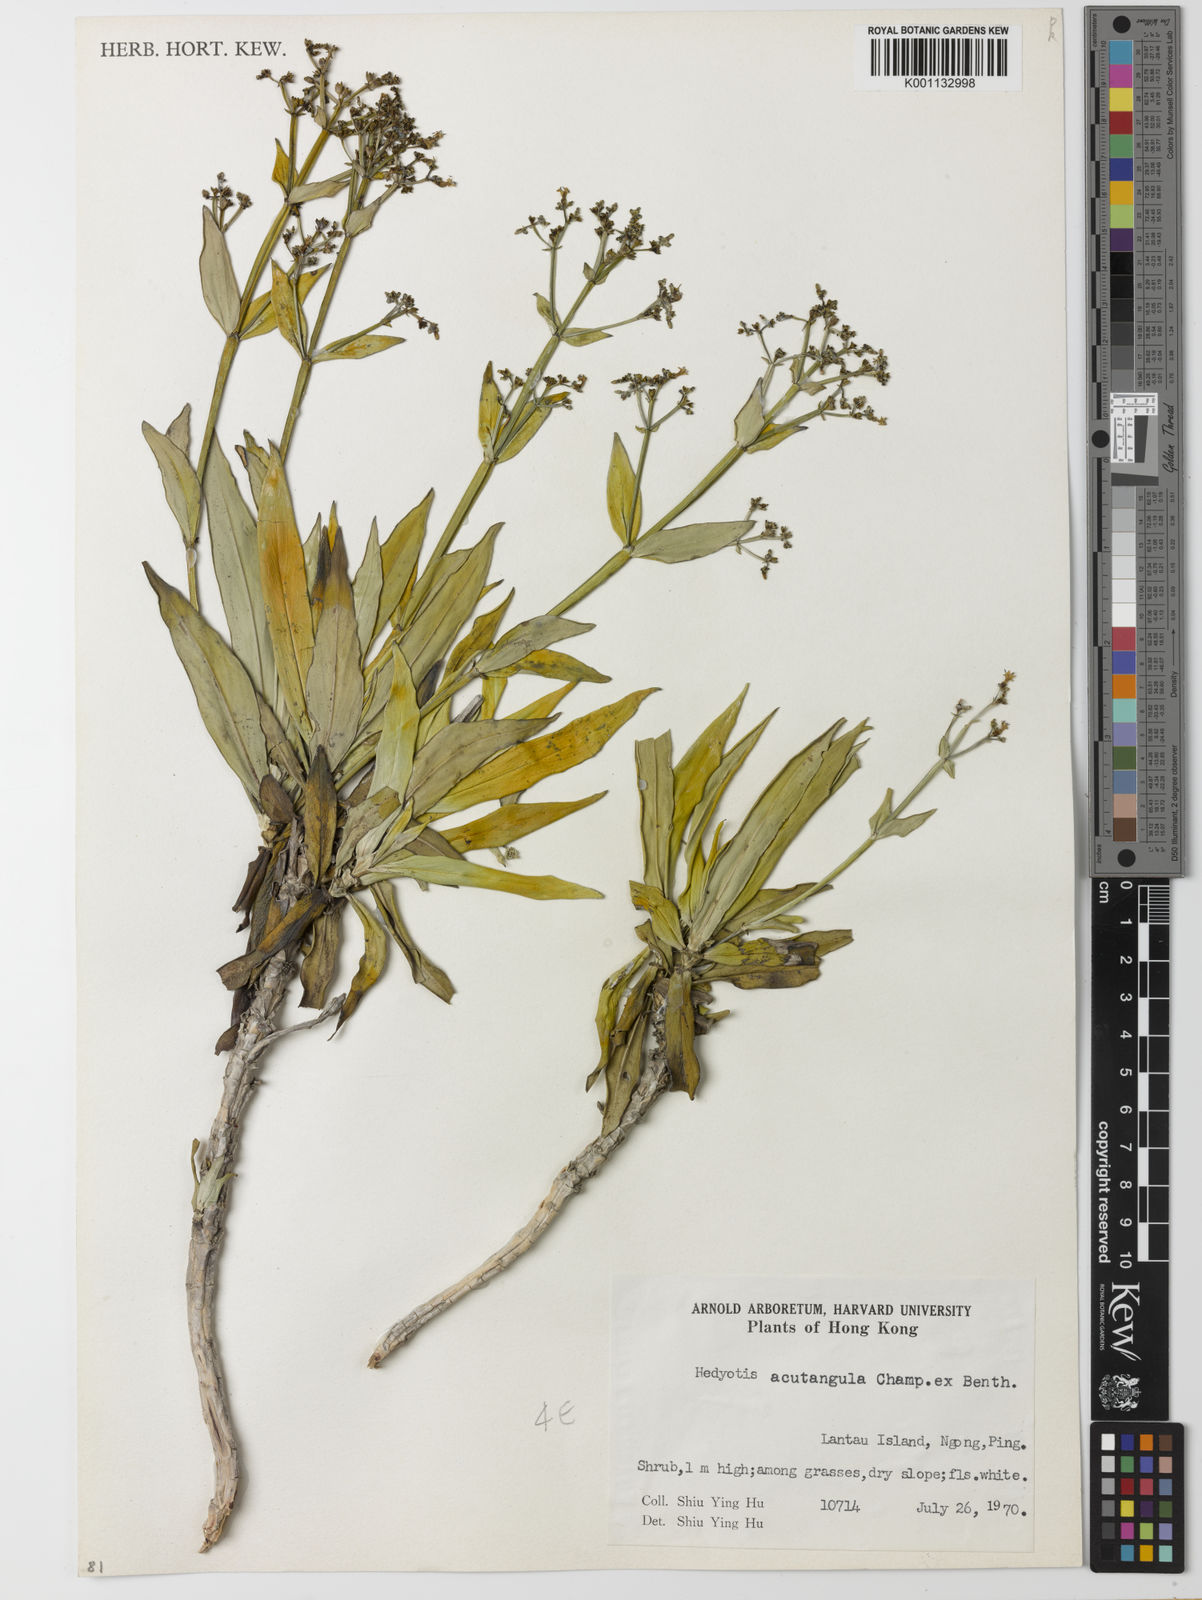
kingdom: Plantae
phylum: Tracheophyta
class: Magnoliopsida
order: Gentianales
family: Rubiaceae
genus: Hedyotis
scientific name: Hedyotis acutangula
